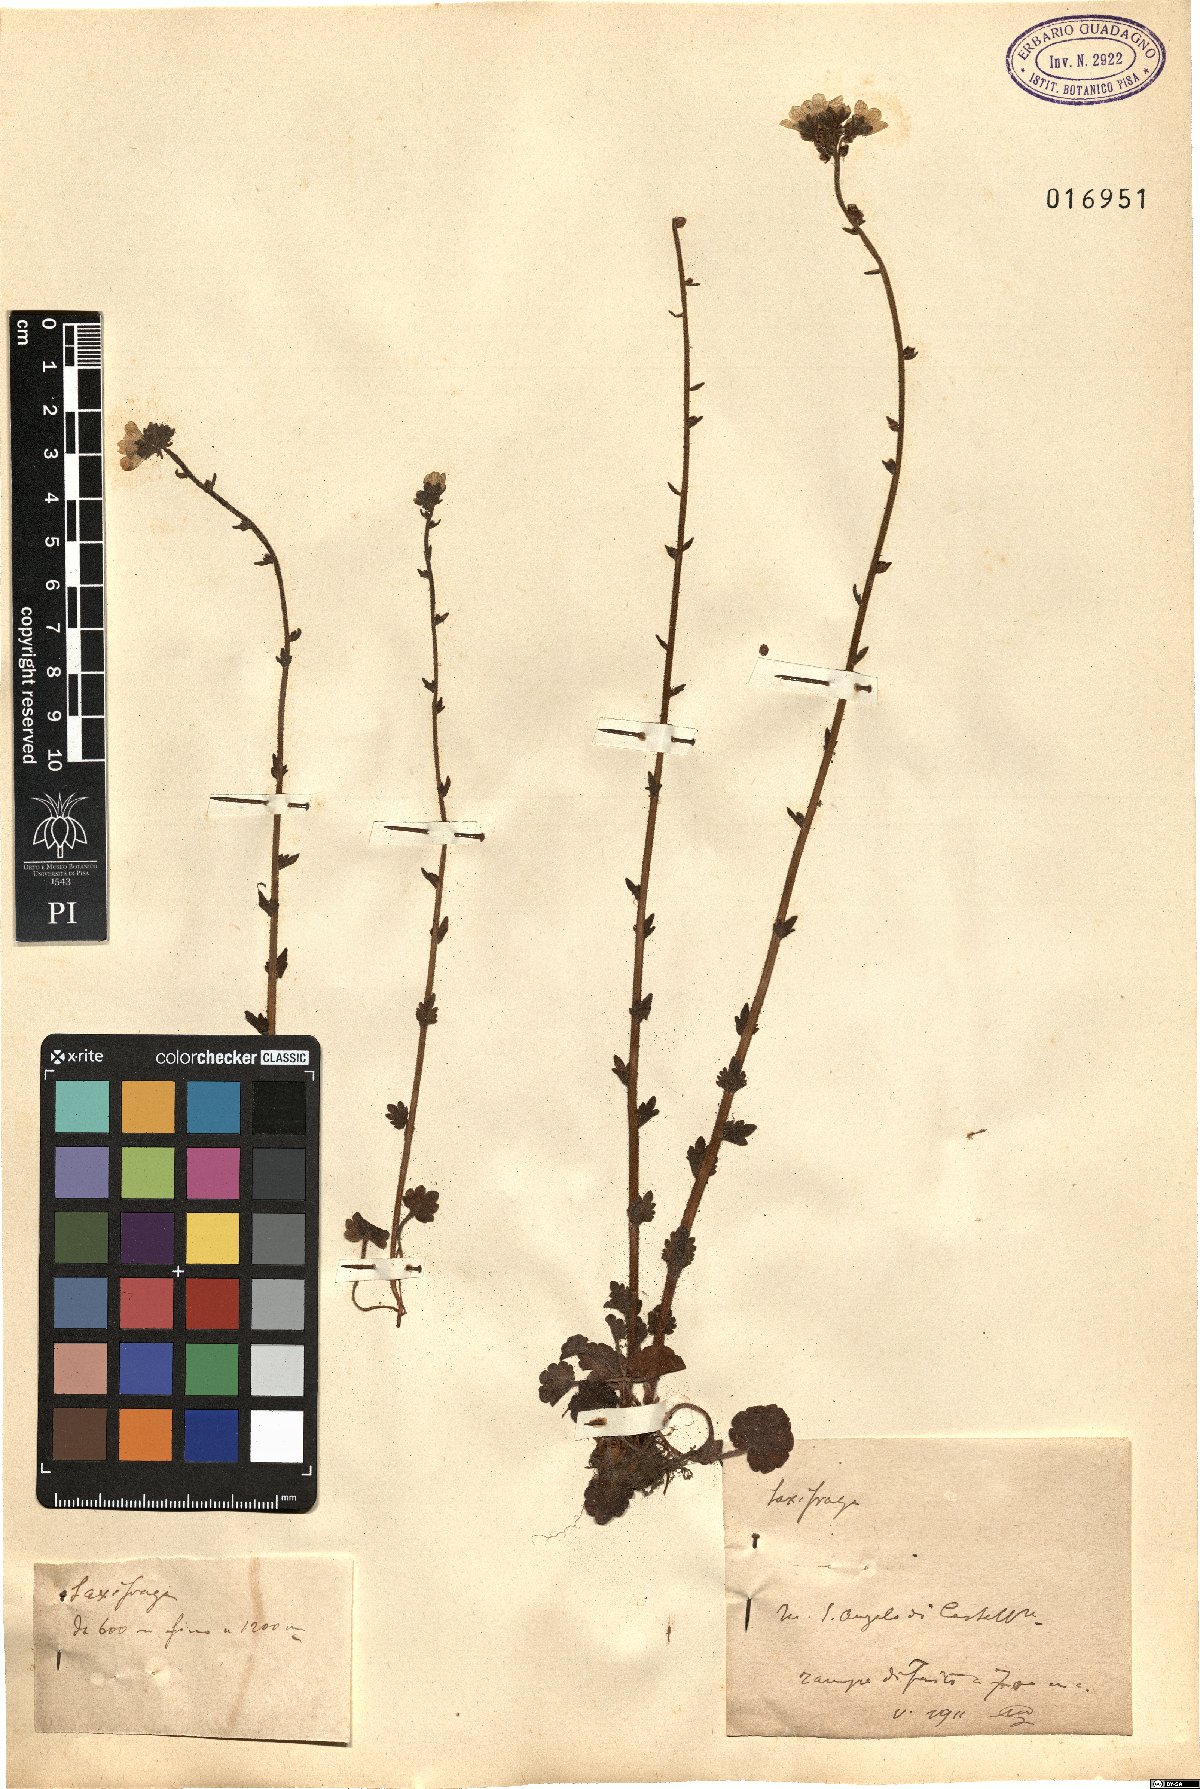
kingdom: Plantae
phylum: Tracheophyta
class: Magnoliopsida
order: Saxifragales
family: Saxifragaceae
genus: Saxifraga
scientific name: Saxifraga
